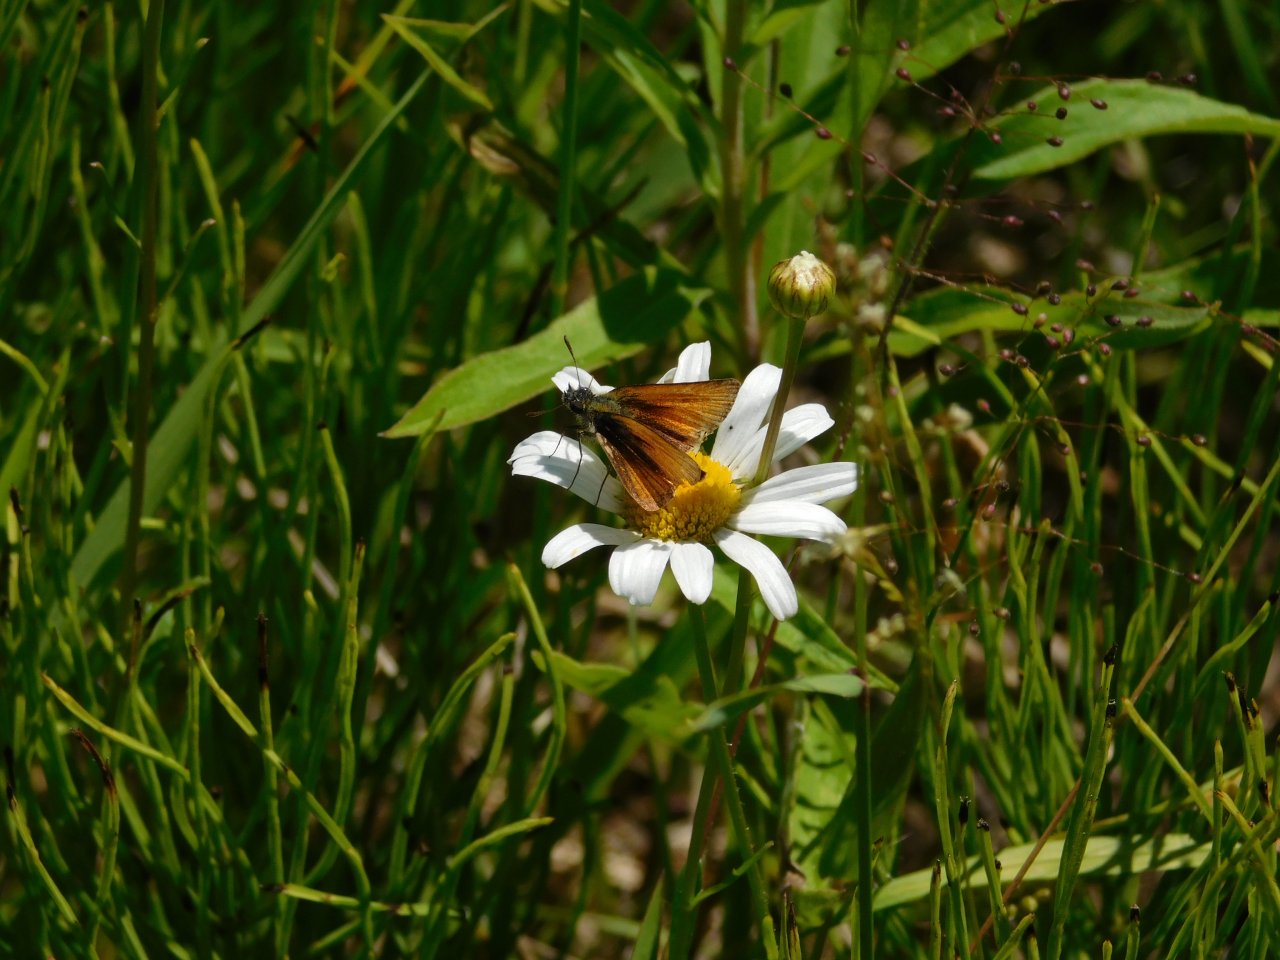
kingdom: Animalia
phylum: Arthropoda
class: Insecta
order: Lepidoptera
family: Hesperiidae
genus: Thymelicus
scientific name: Thymelicus lineola
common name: European Skipper
